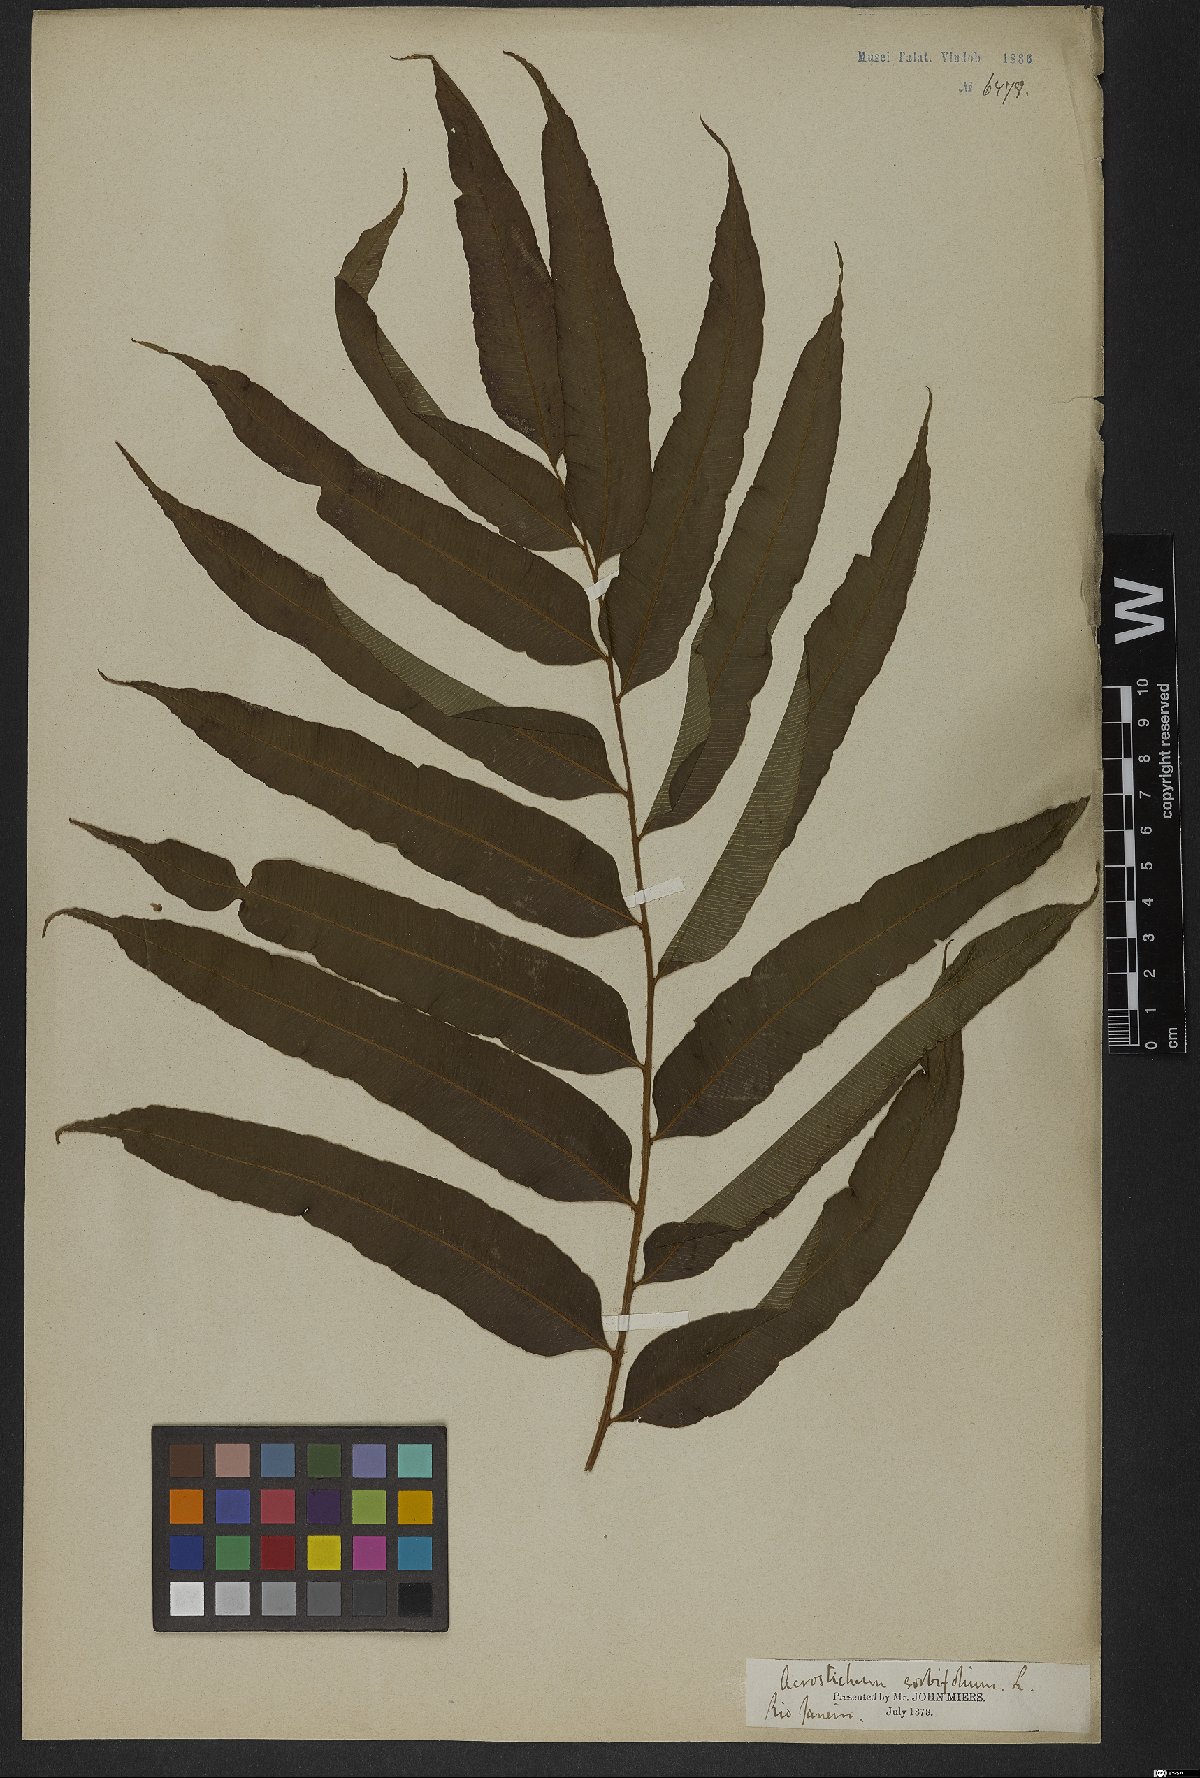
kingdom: Plantae
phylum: Tracheophyta
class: Polypodiopsida
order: Polypodiales
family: Blechnaceae
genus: Stenochlaena
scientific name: Stenochlaena
